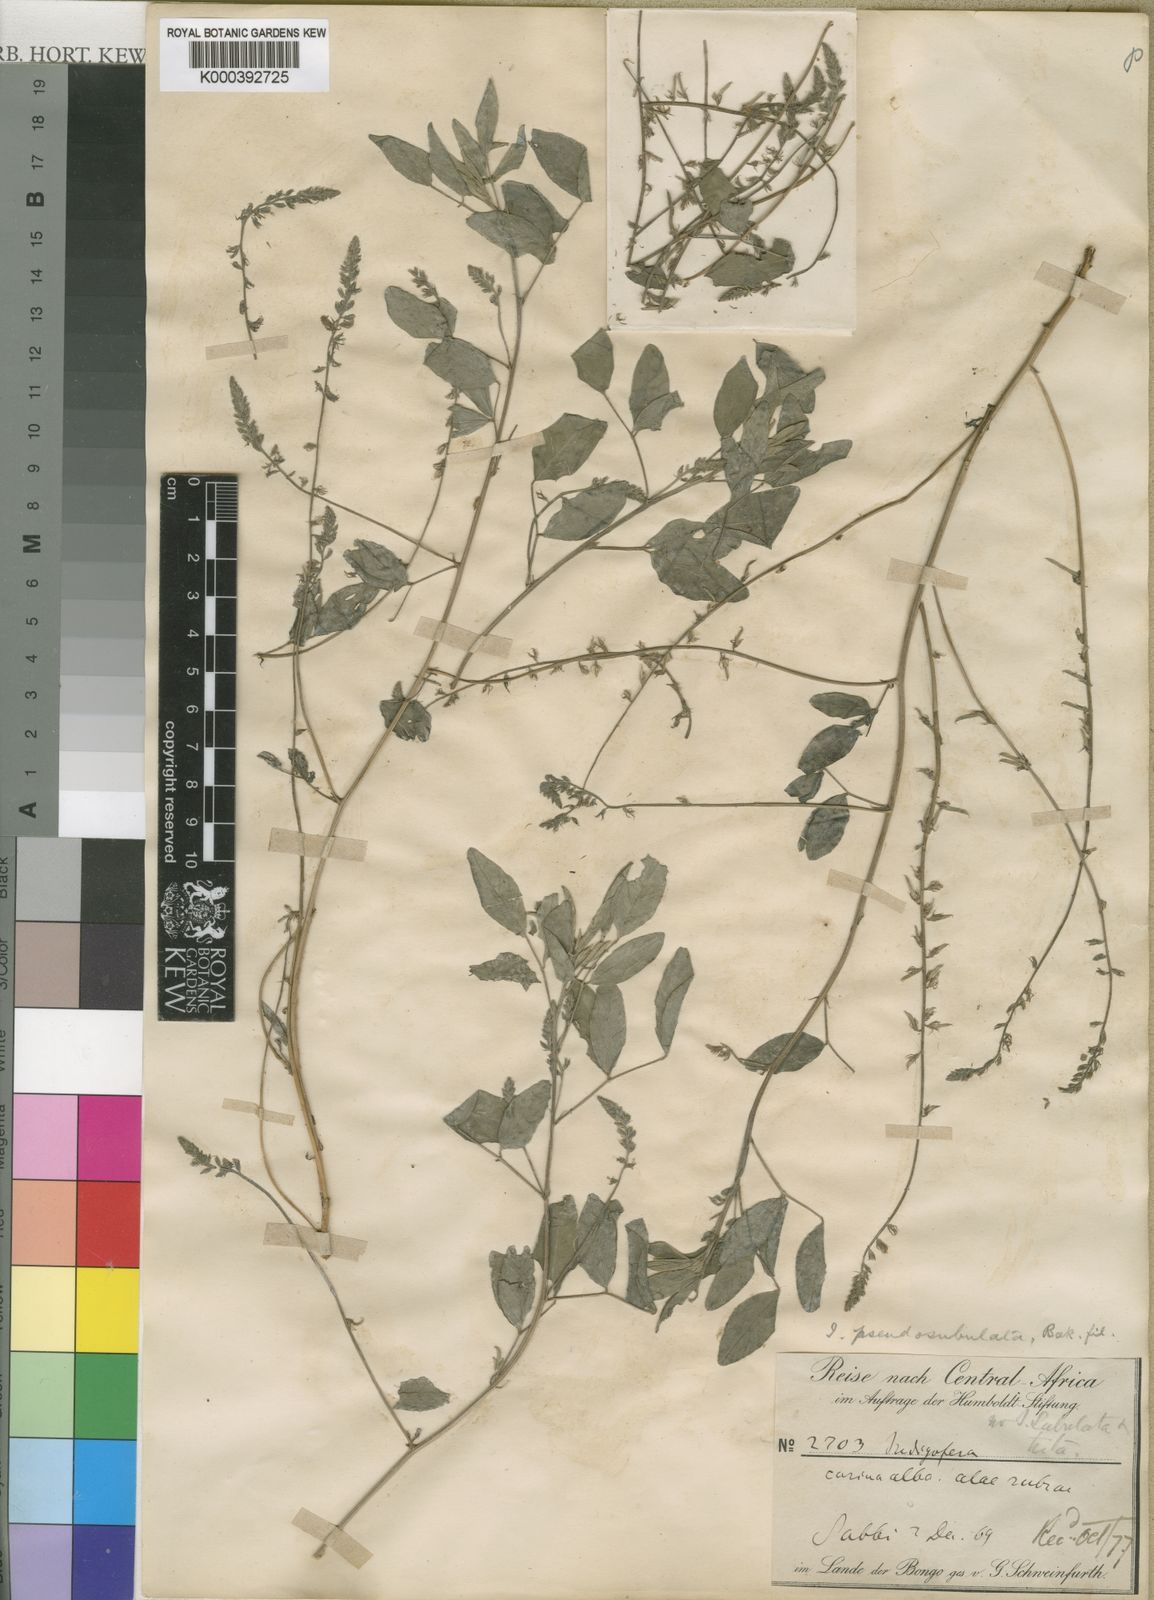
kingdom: Plantae
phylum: Tracheophyta
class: Magnoliopsida
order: Fabales
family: Fabaceae
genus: Indigofera
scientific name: Indigofera pseudosubulata
